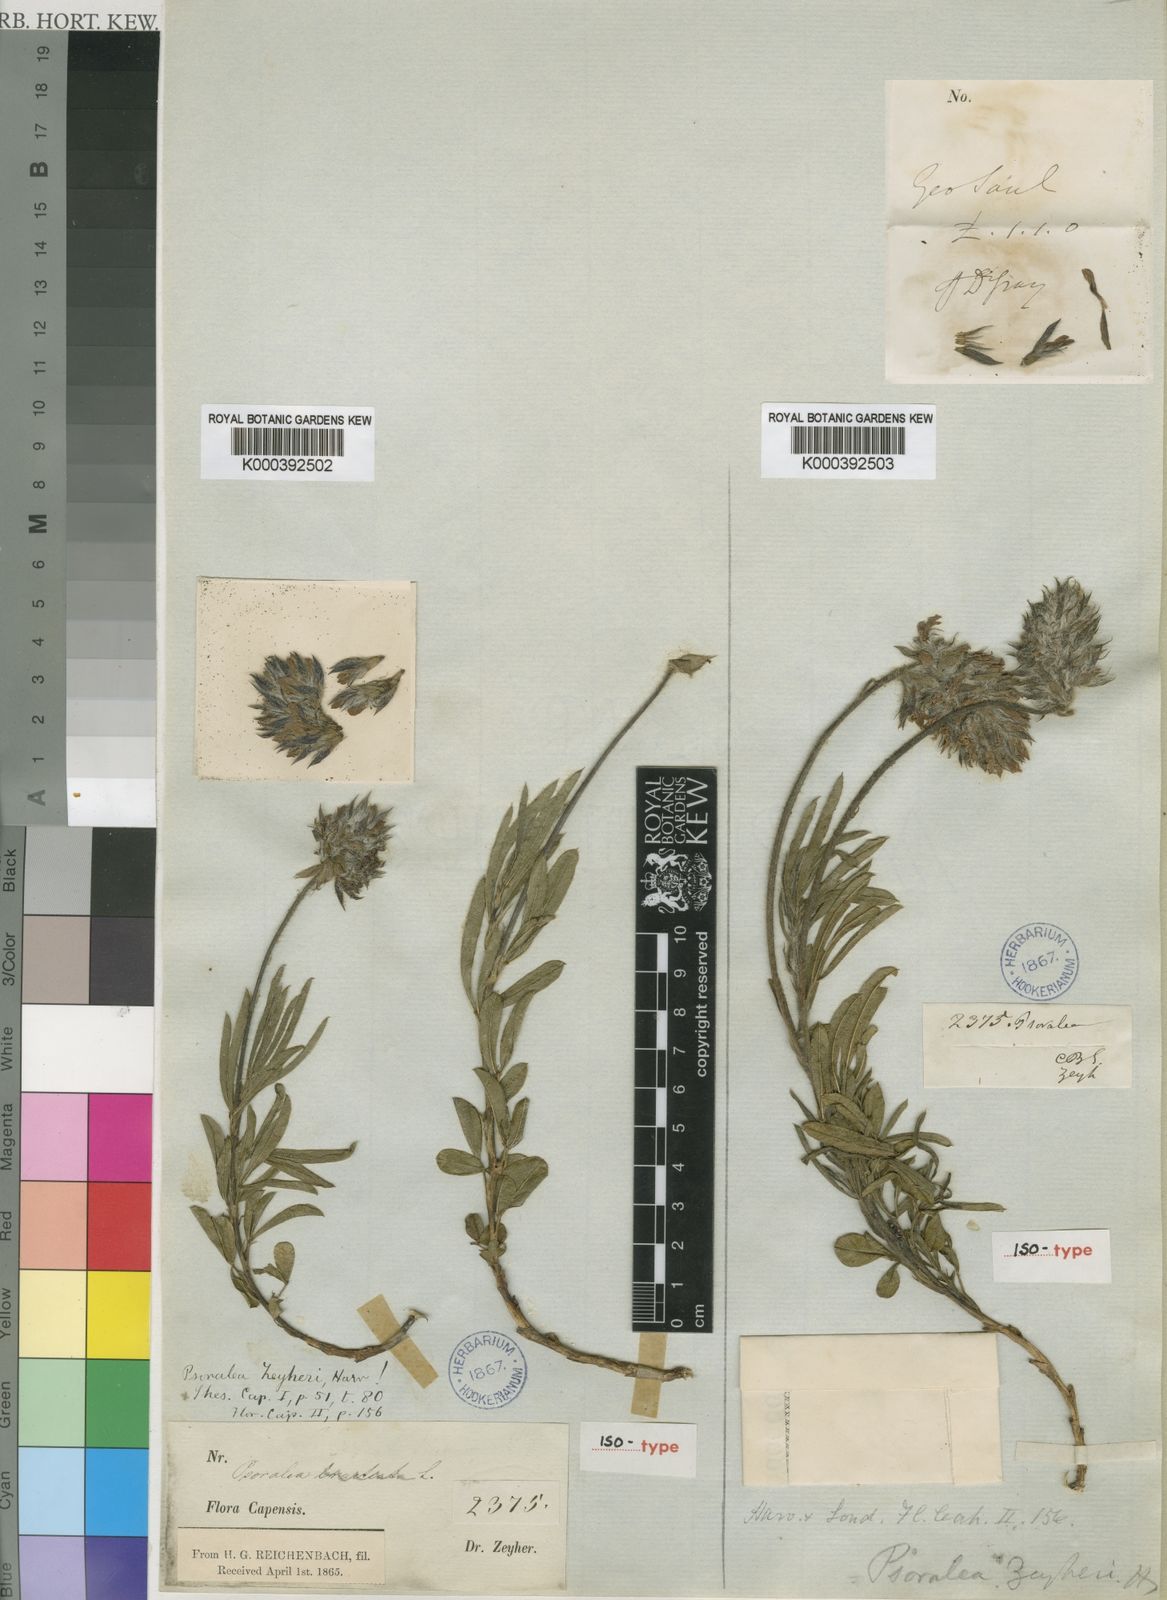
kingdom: Plantae
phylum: Tracheophyta
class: Magnoliopsida
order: Fabales
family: Fabaceae
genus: Psoralea
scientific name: Psoralea zeyheri
